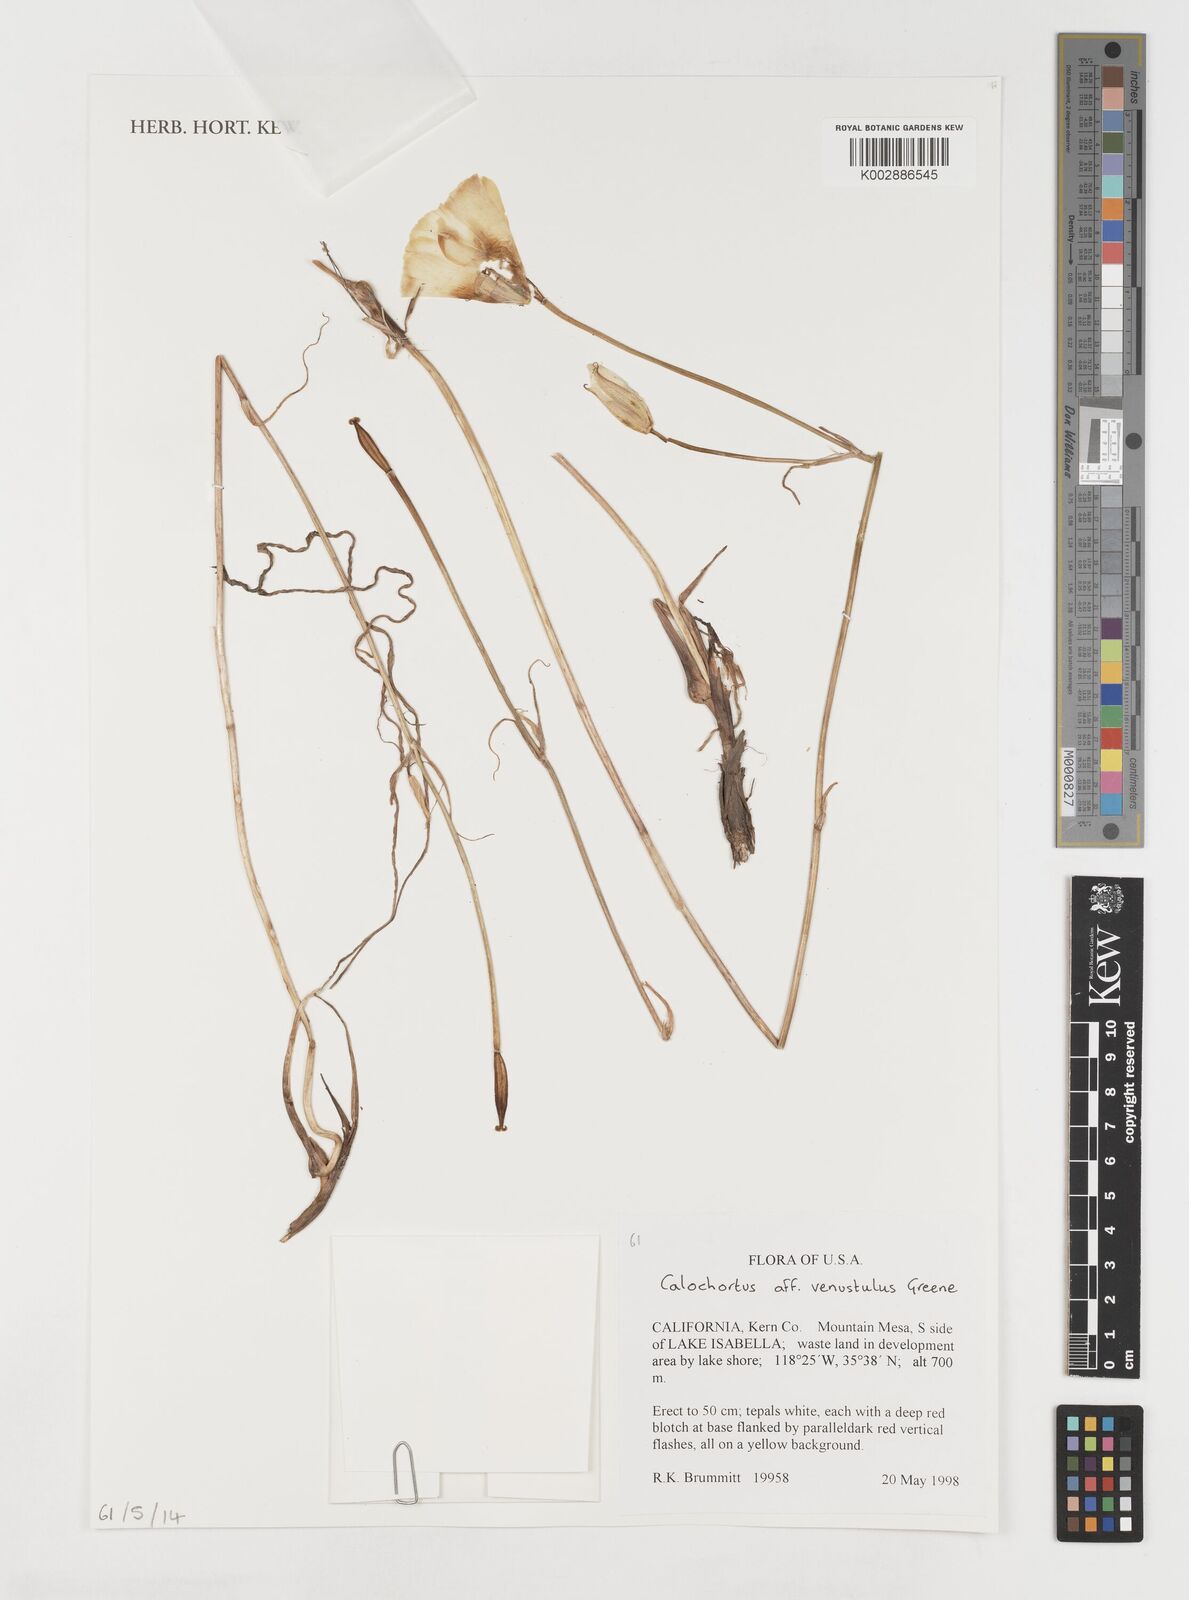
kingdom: Plantae
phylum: Tracheophyta
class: Liliopsida
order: Liliales
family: Liliaceae
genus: Calochortus
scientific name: Calochortus venustulus
